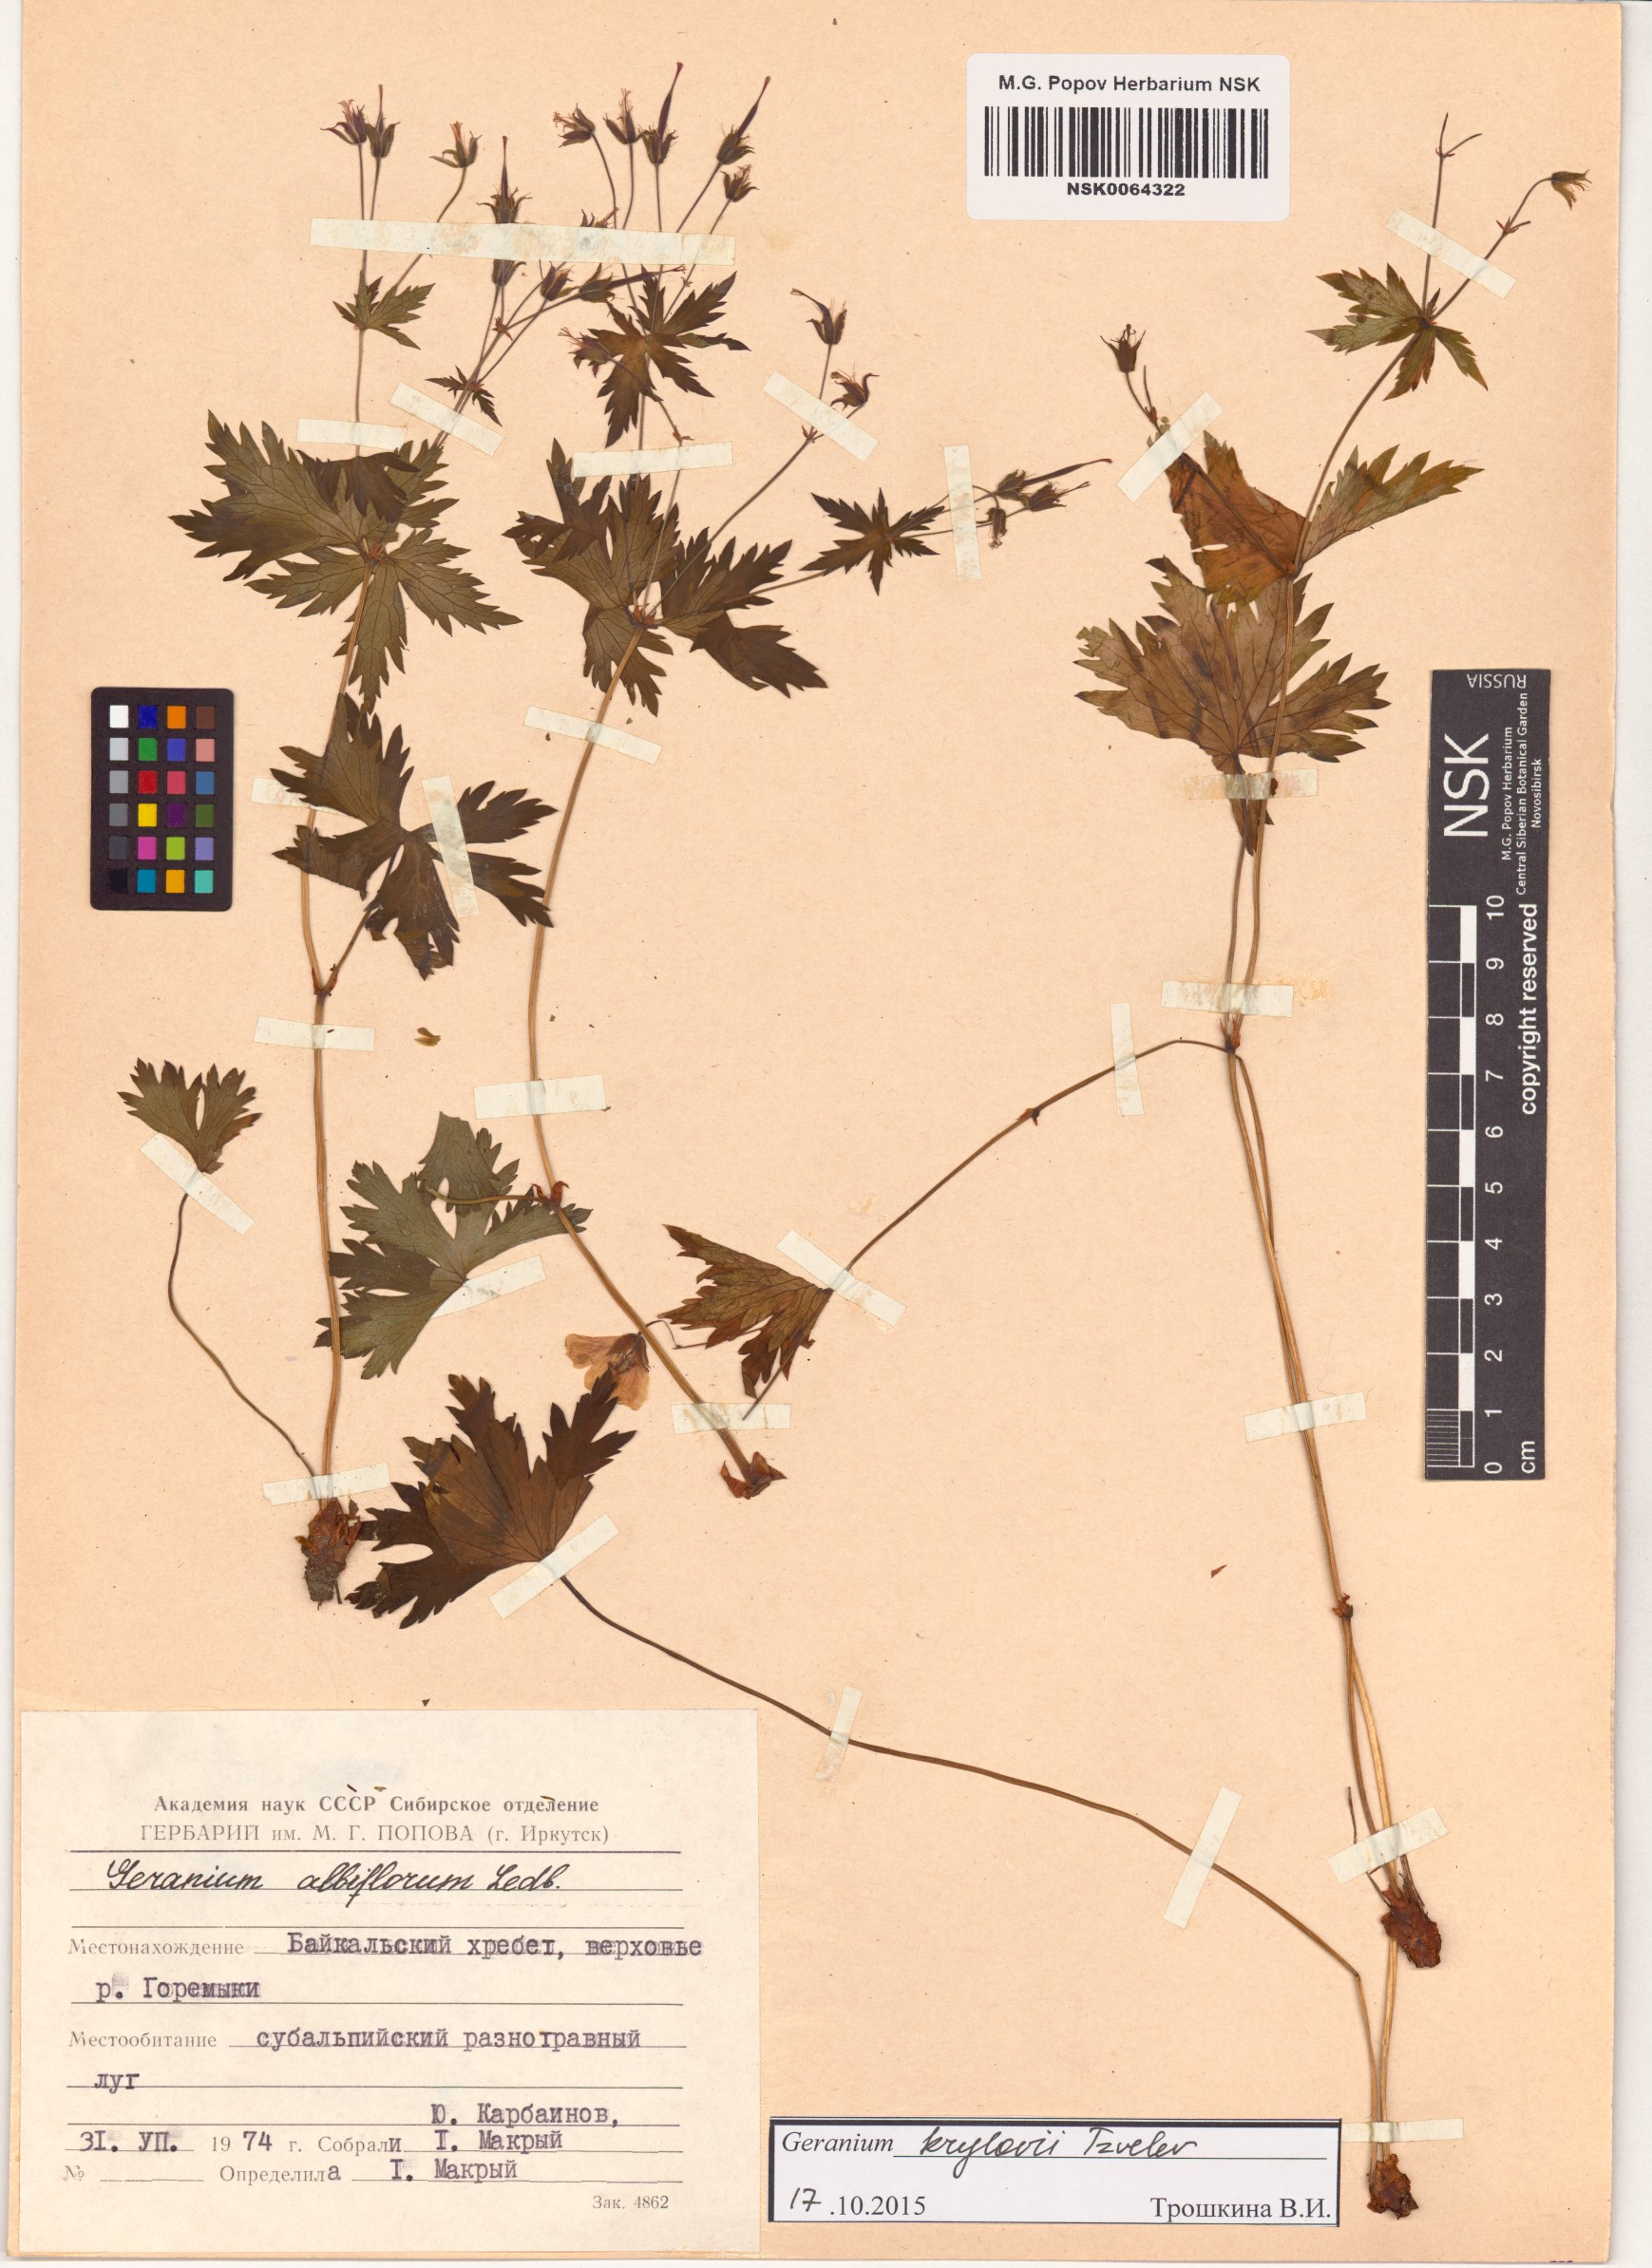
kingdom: Plantae
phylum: Tracheophyta
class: Magnoliopsida
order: Geraniales
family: Geraniaceae
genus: Geranium
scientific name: Geranium sylvaticum
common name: Wood crane's-bill
